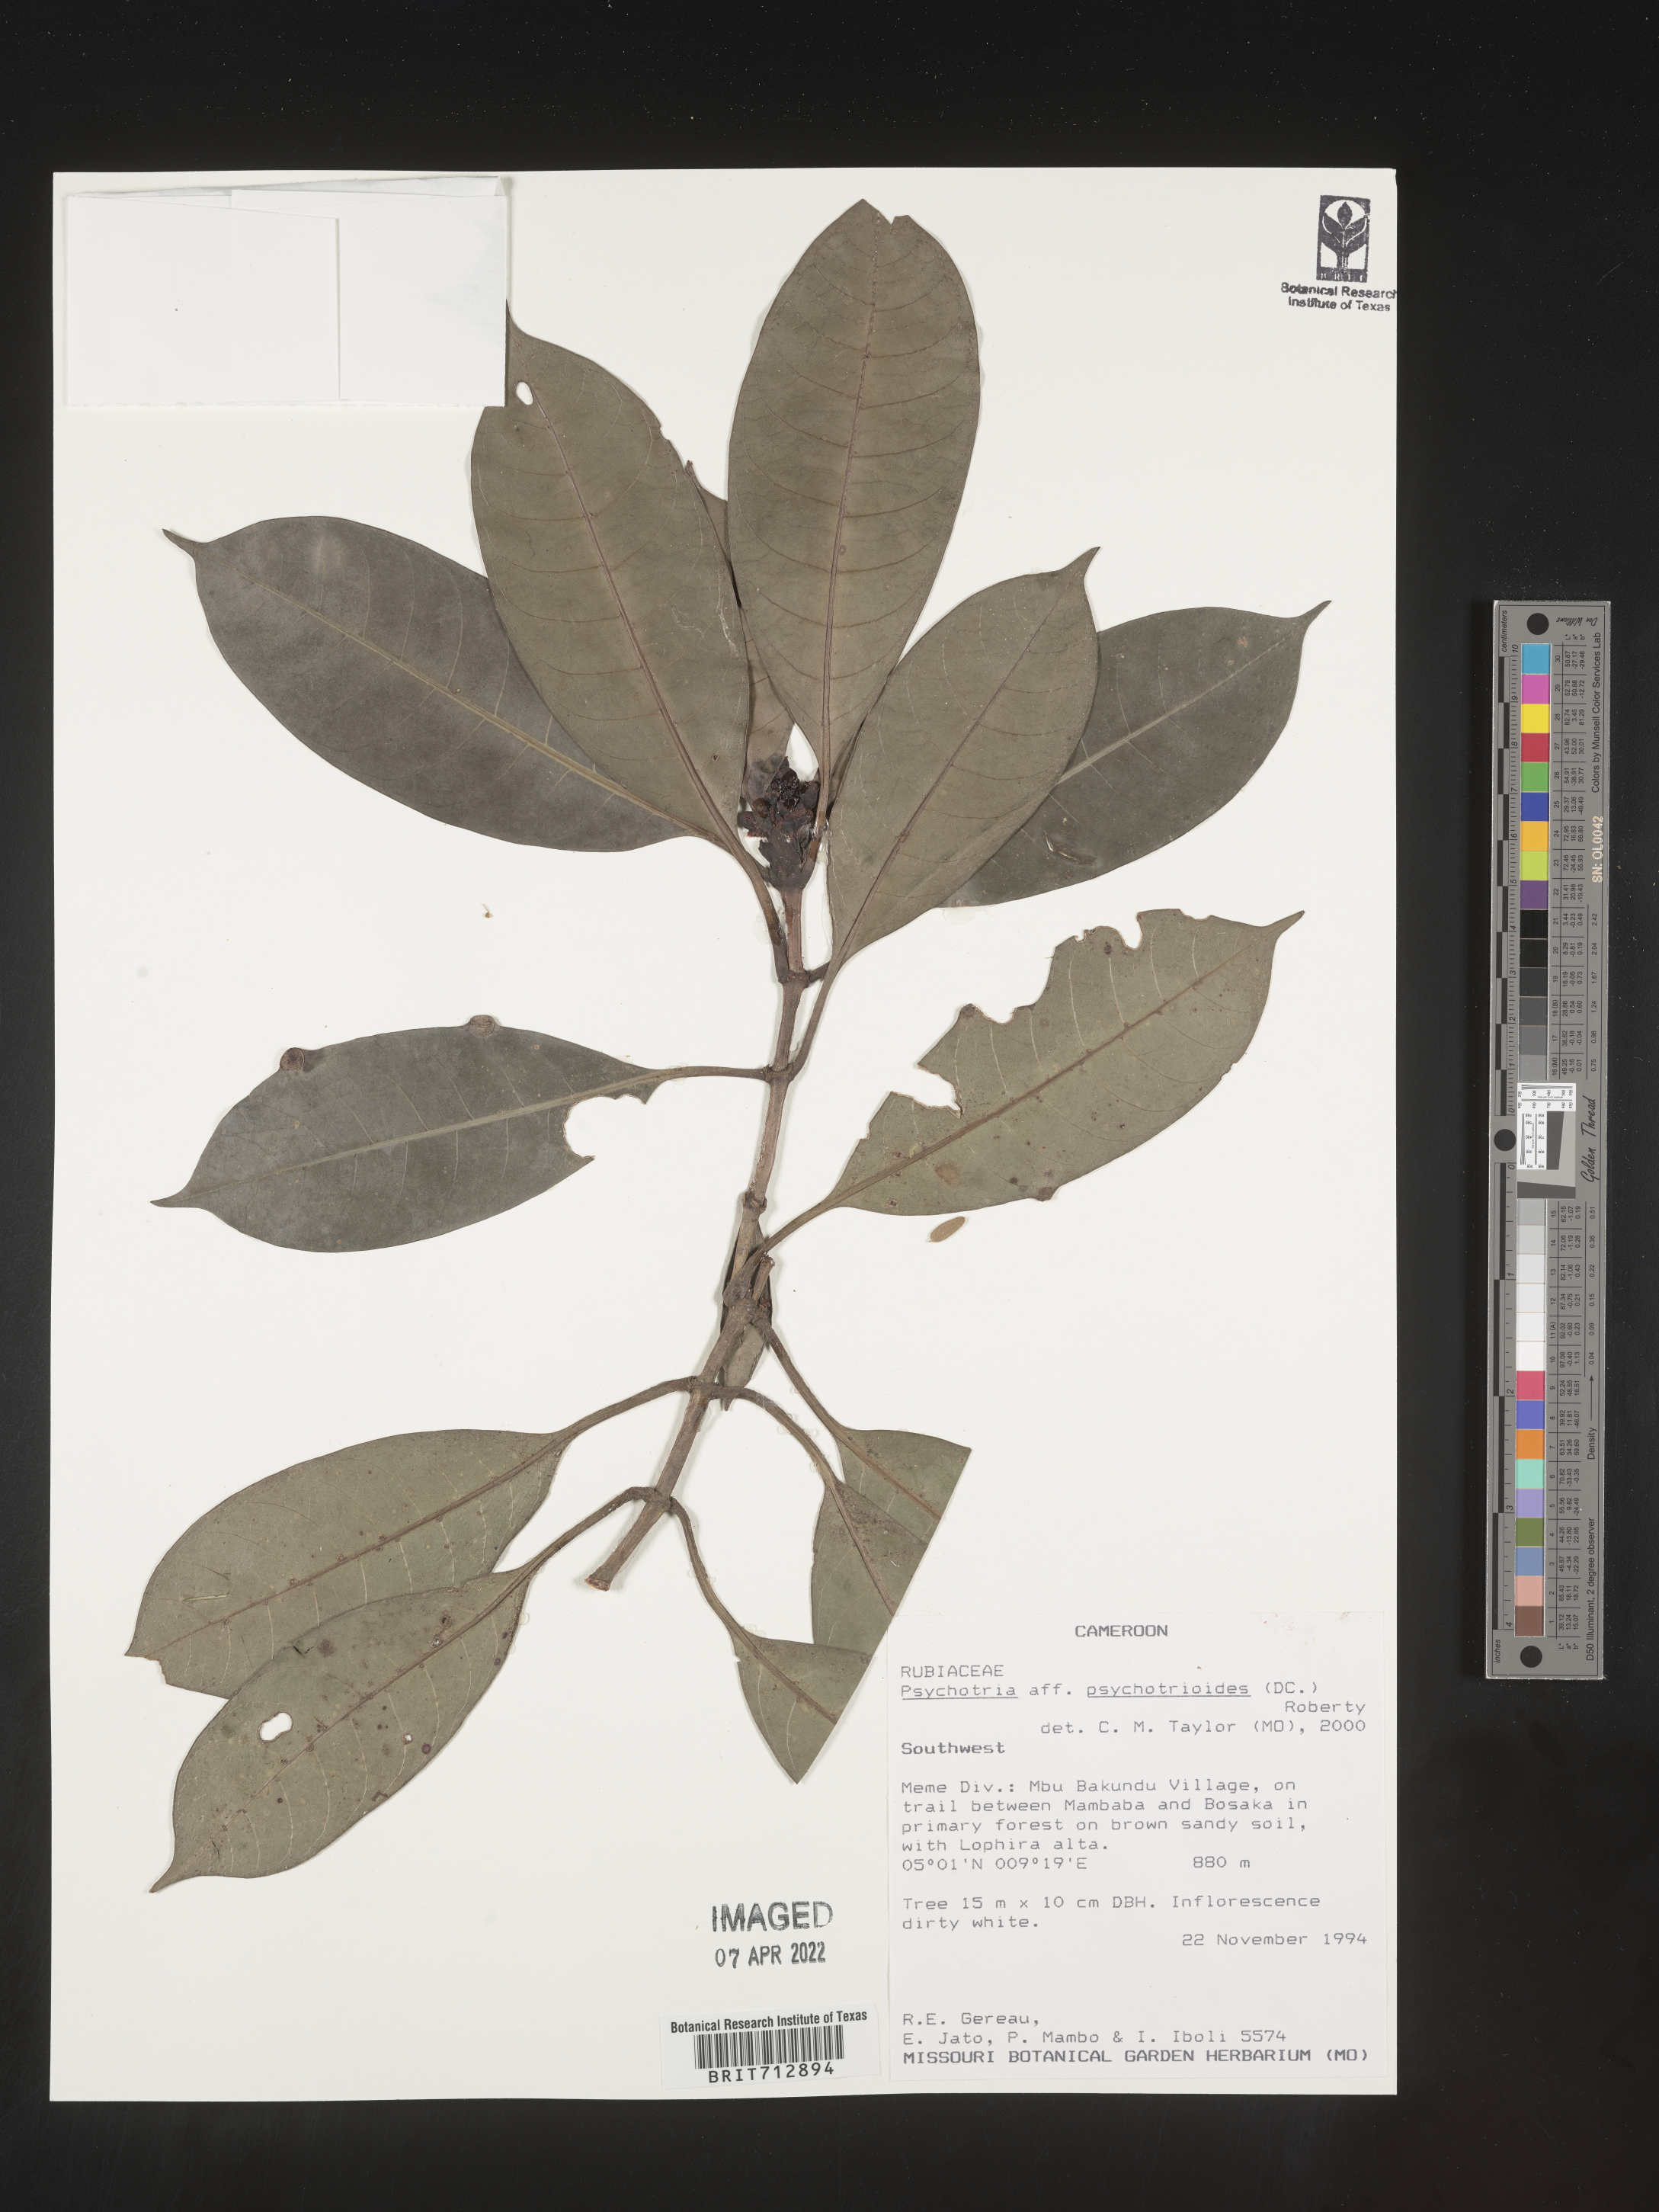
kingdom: Plantae
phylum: Tracheophyta
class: Magnoliopsida
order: Gentianales
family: Rubiaceae
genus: Psychotria
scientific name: Psychotria
